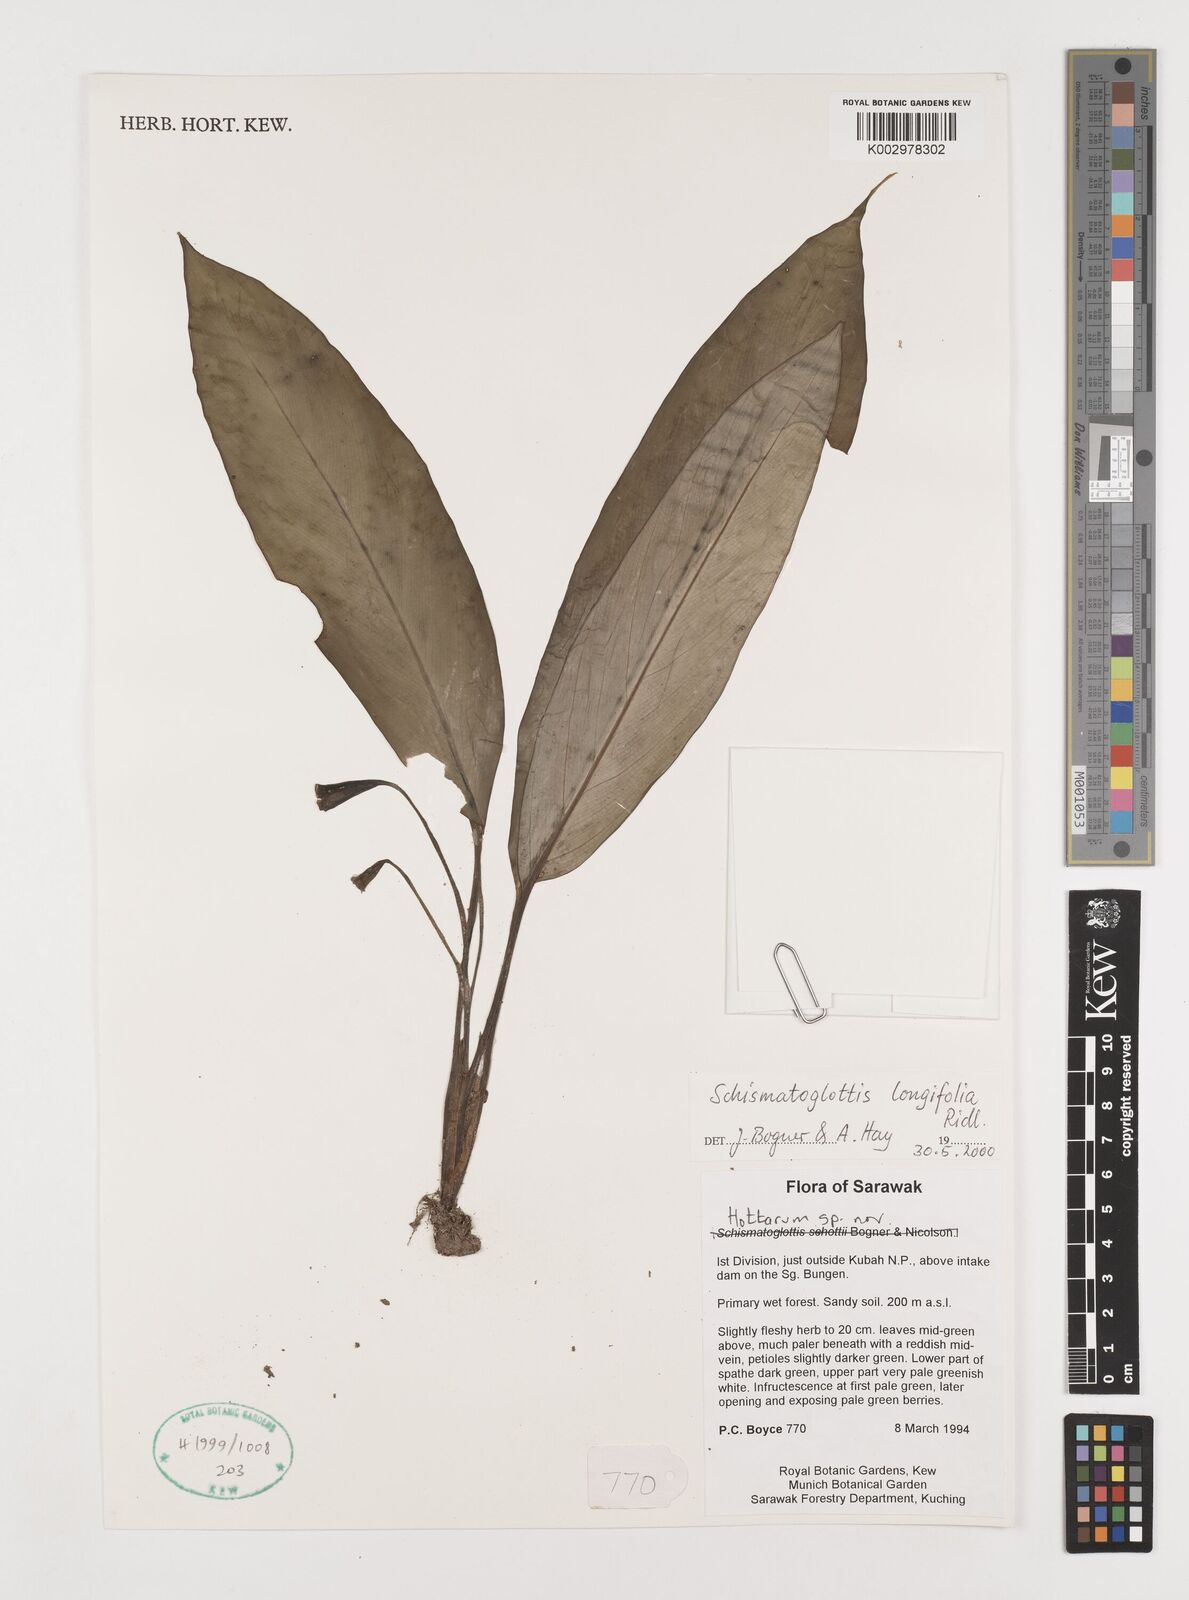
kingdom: Plantae
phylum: Tracheophyta
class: Liliopsida
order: Alismatales
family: Araceae
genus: Vesta
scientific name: Vesta longifolia
